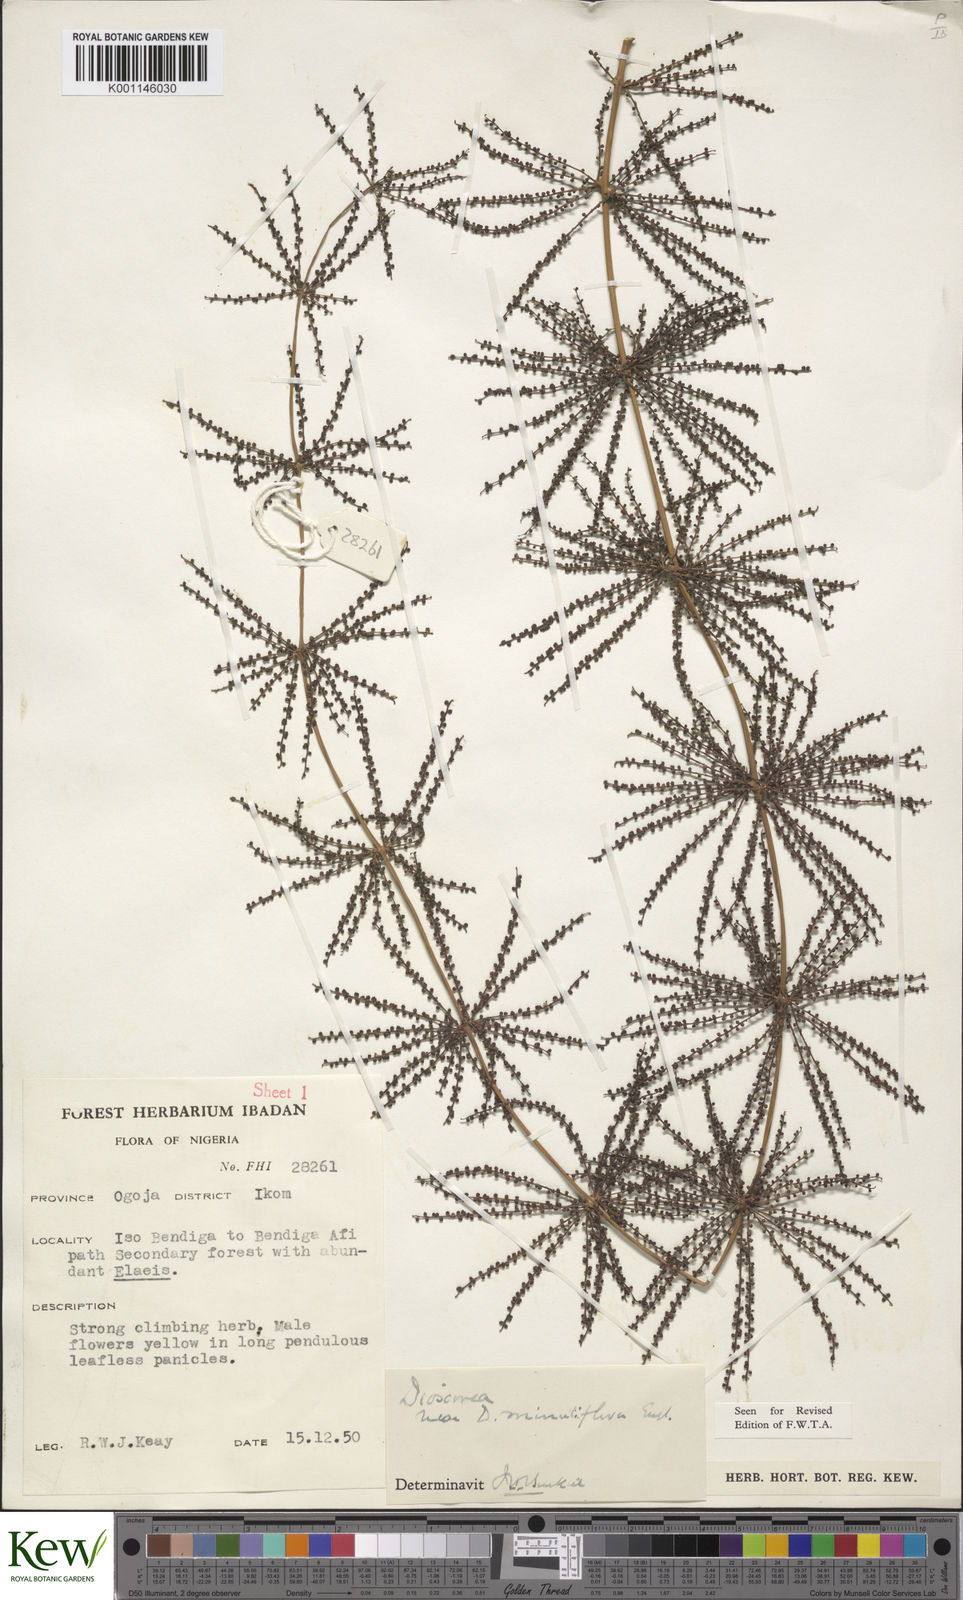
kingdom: Plantae
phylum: Tracheophyta
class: Liliopsida
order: Dioscoreales
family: Dioscoreaceae
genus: Dioscorea
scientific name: Dioscorea minutiflora
